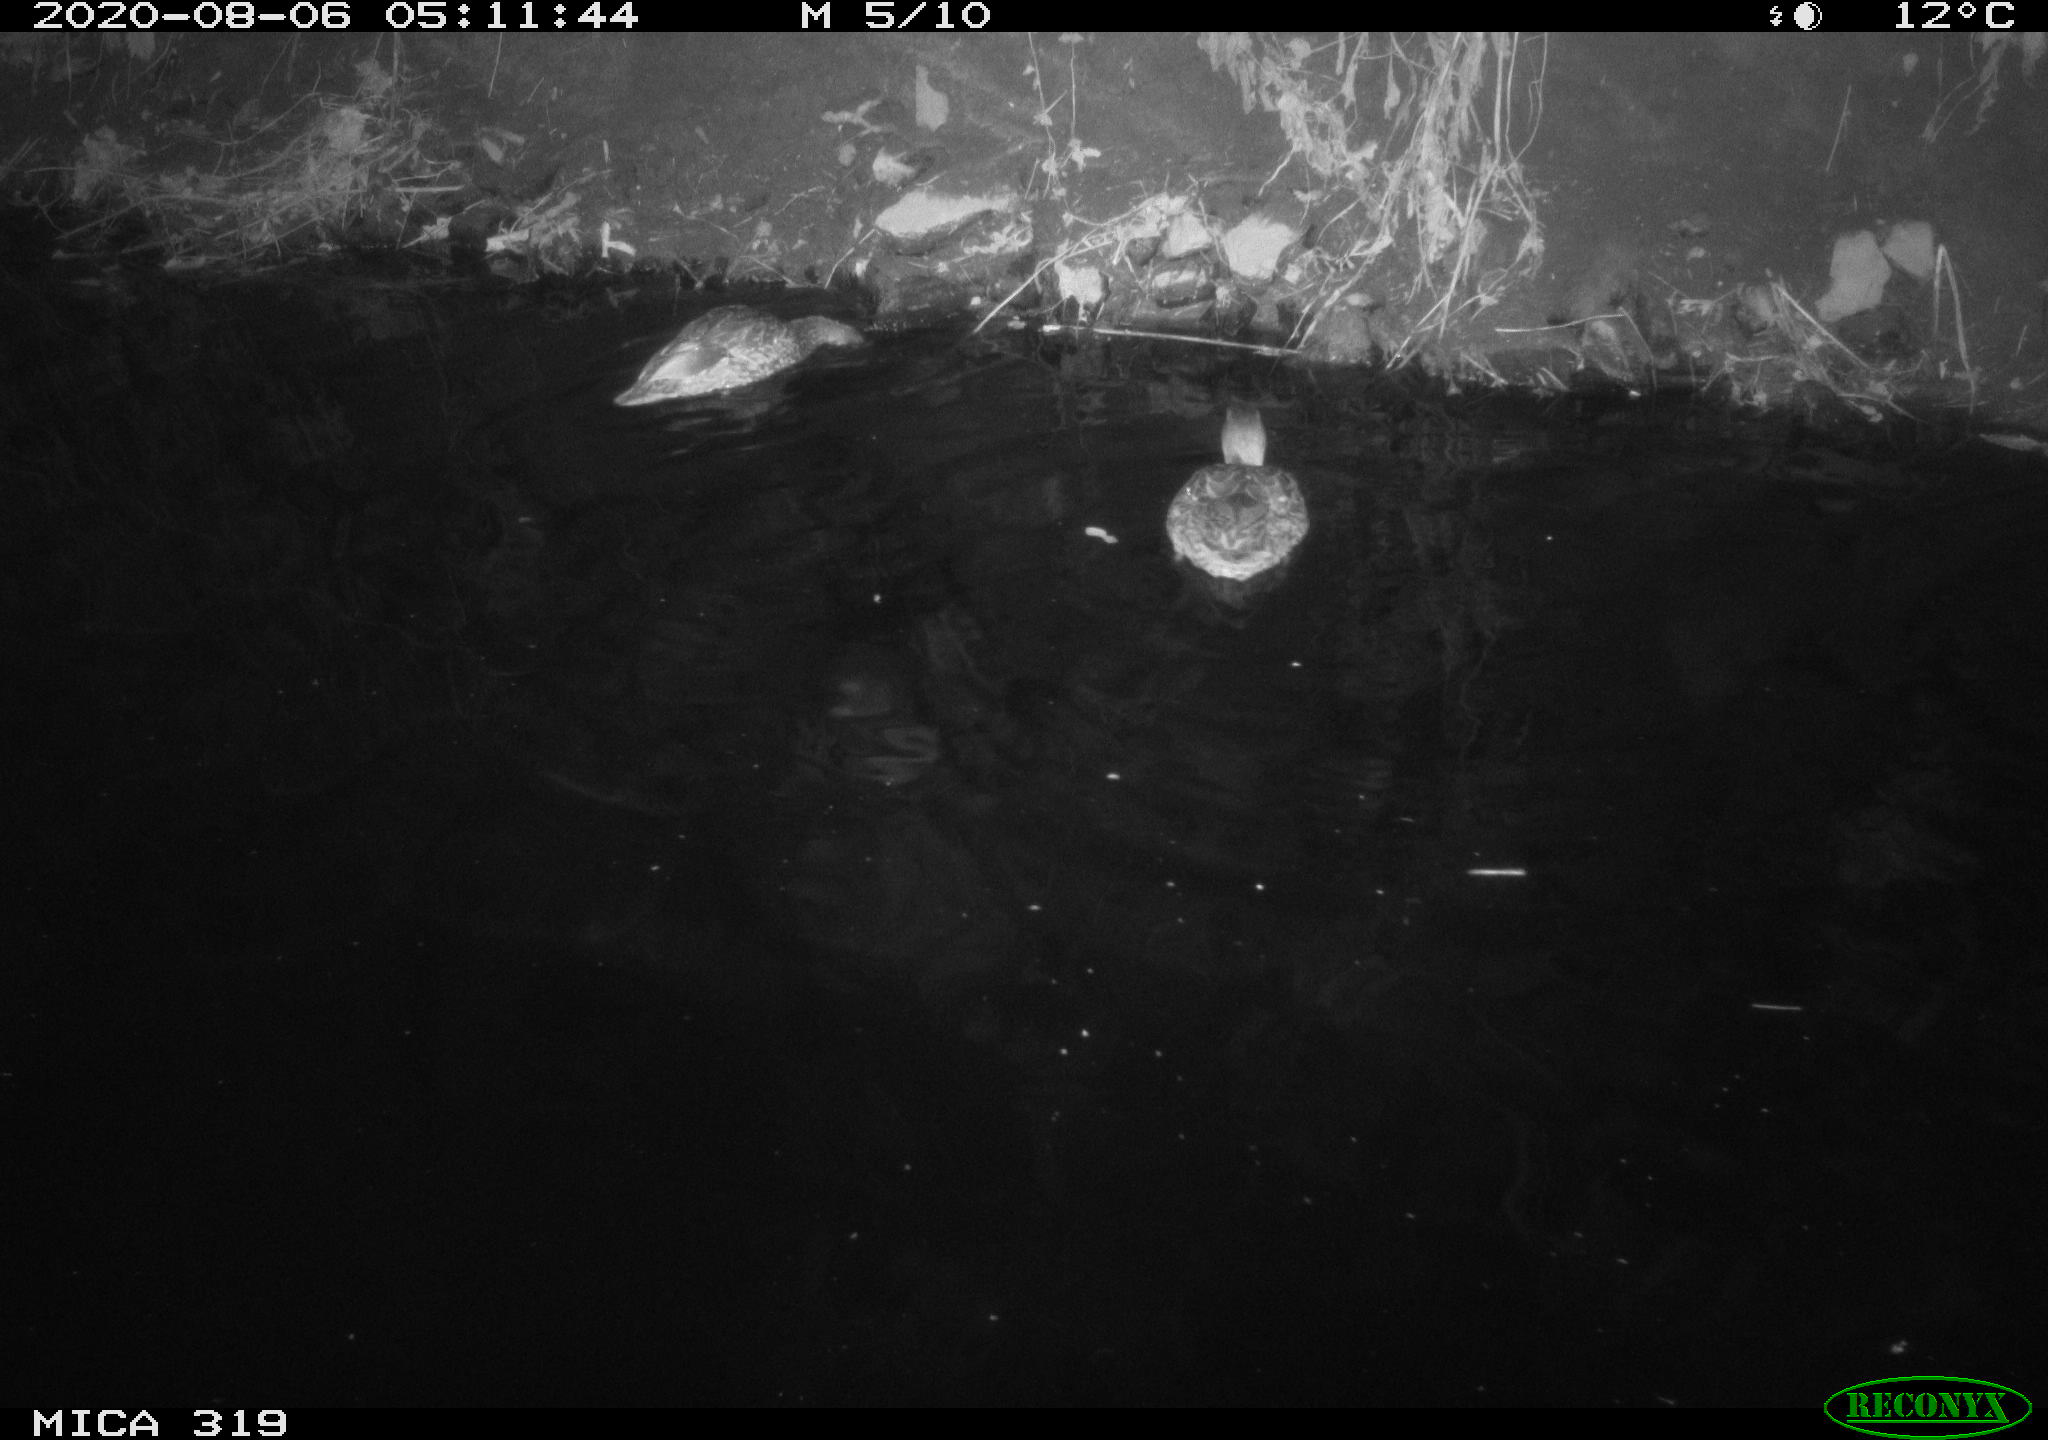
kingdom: Animalia
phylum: Chordata
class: Aves
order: Anseriformes
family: Anatidae
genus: Anas
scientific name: Anas platyrhynchos
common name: Mallard
